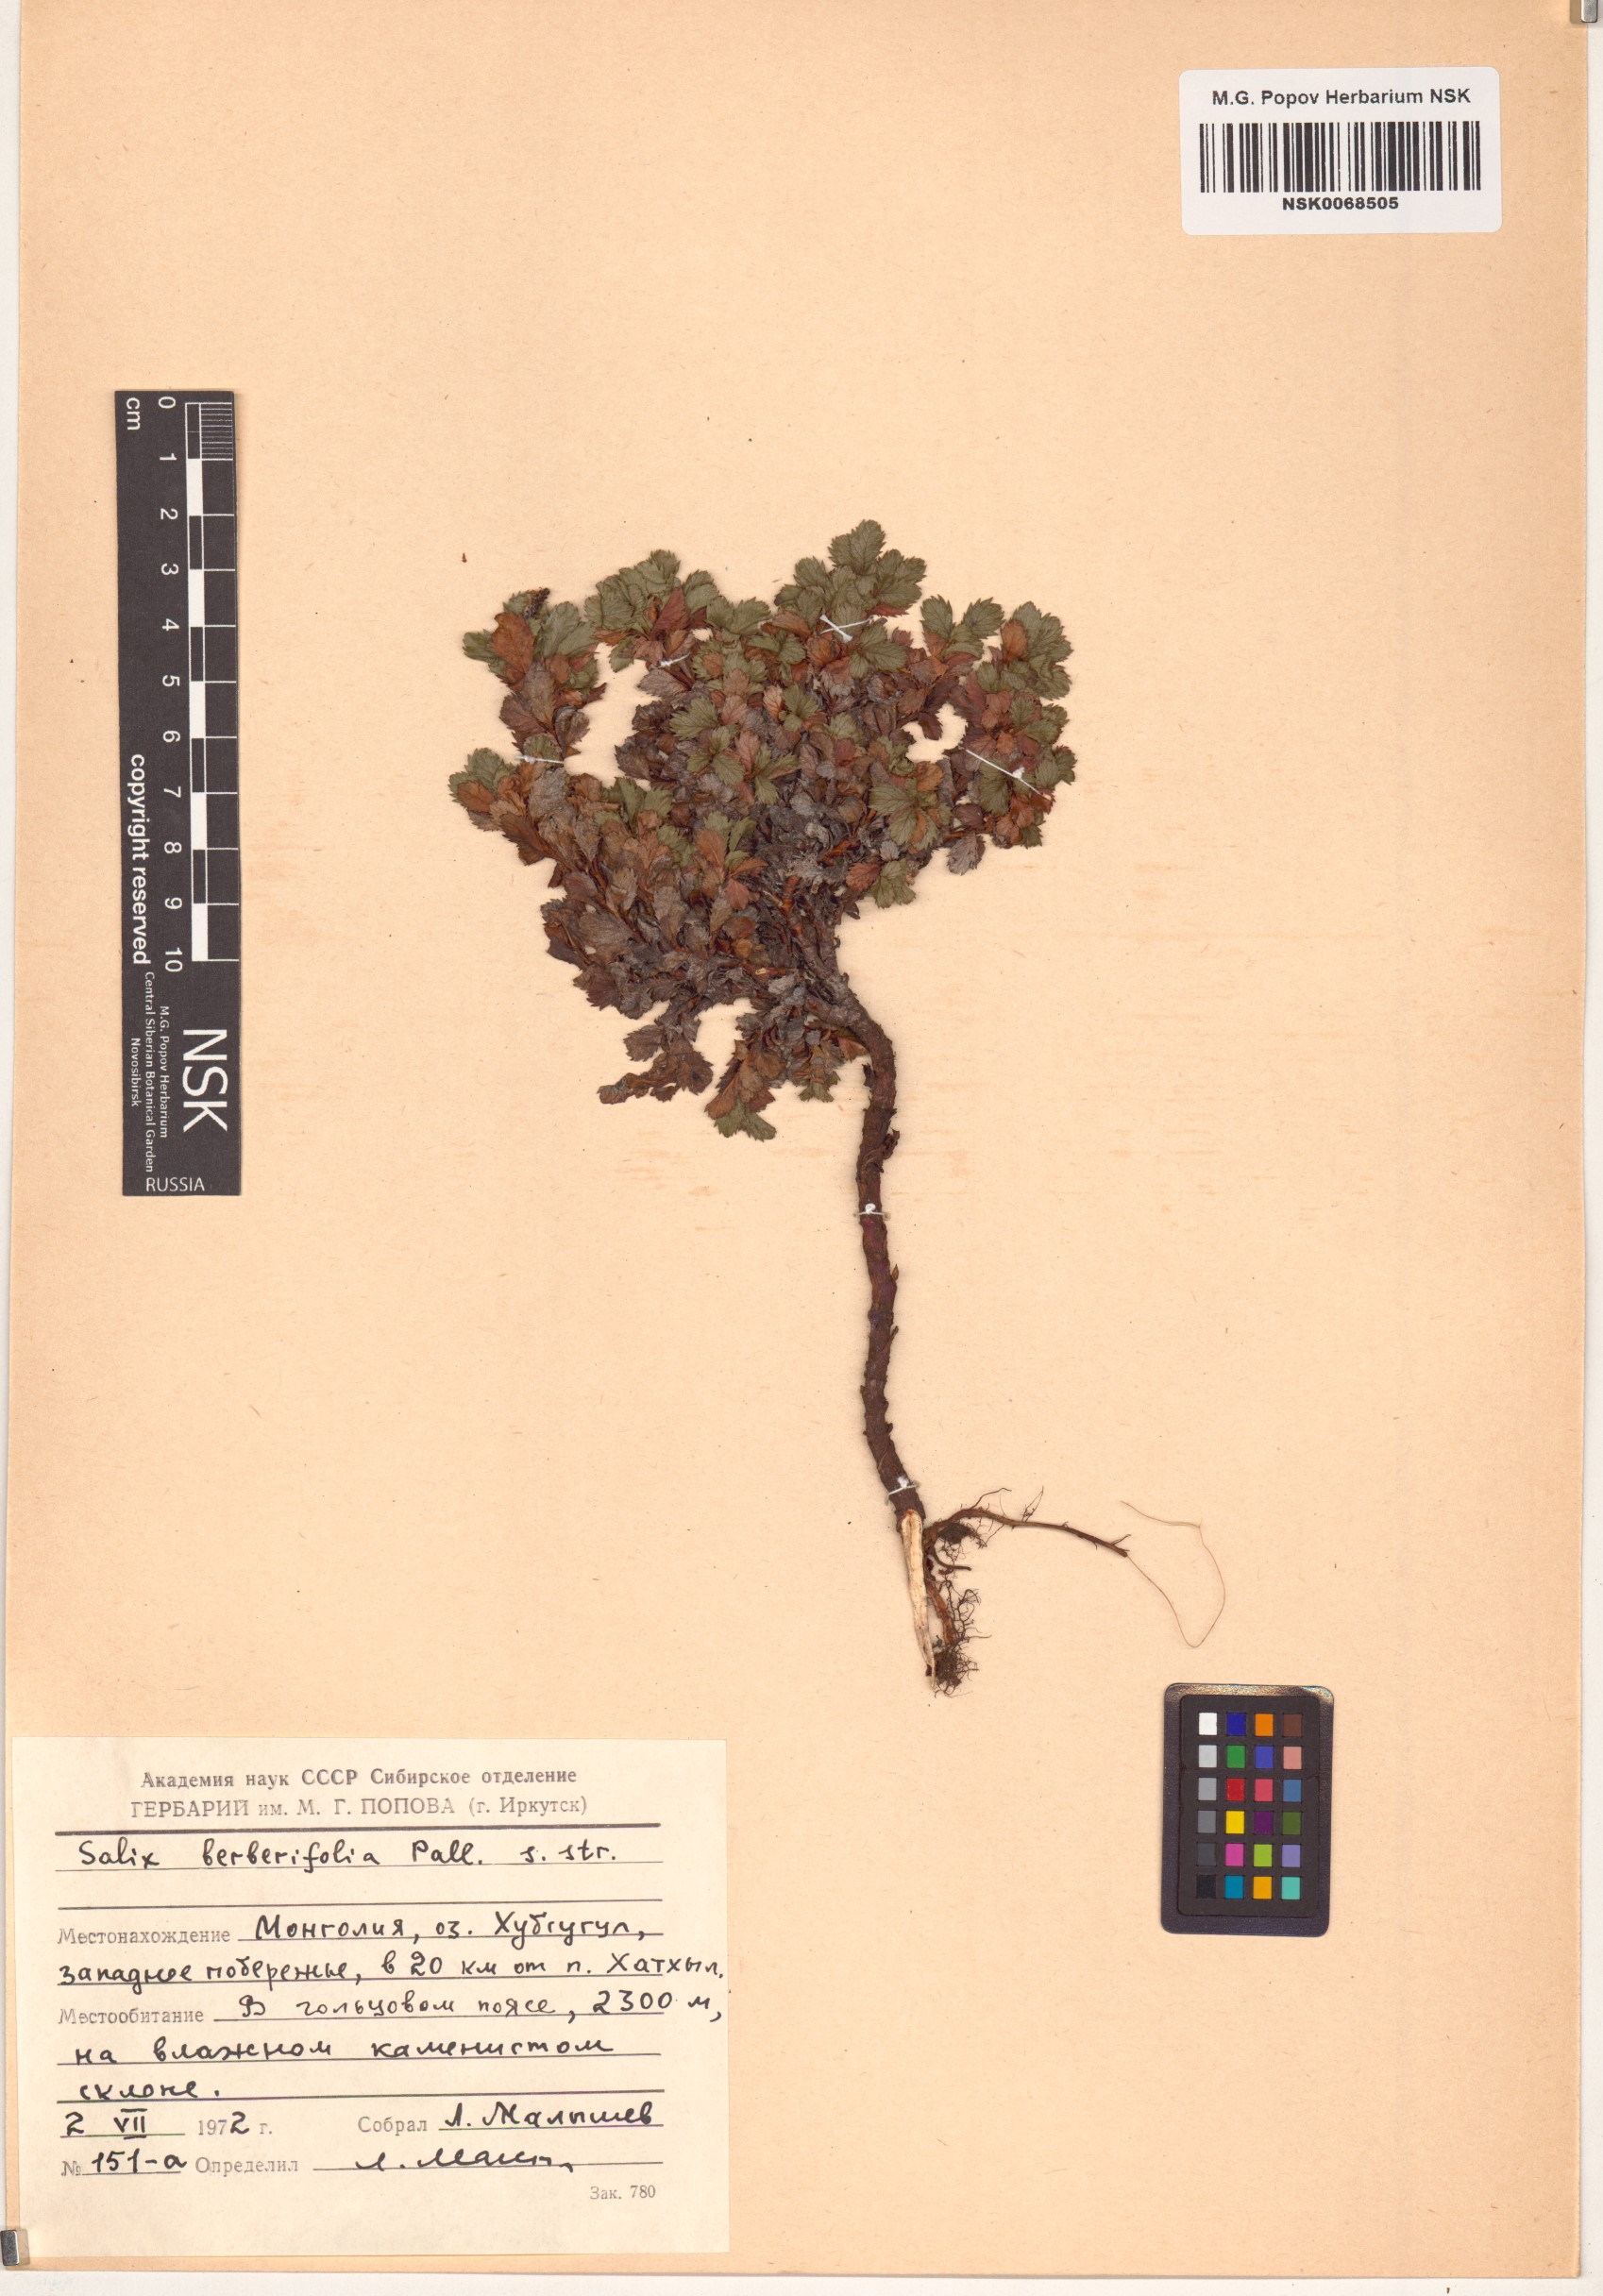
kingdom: Plantae
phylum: Tracheophyta
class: Magnoliopsida
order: Malpighiales
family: Salicaceae
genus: Salix
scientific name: Salix berberifolia
